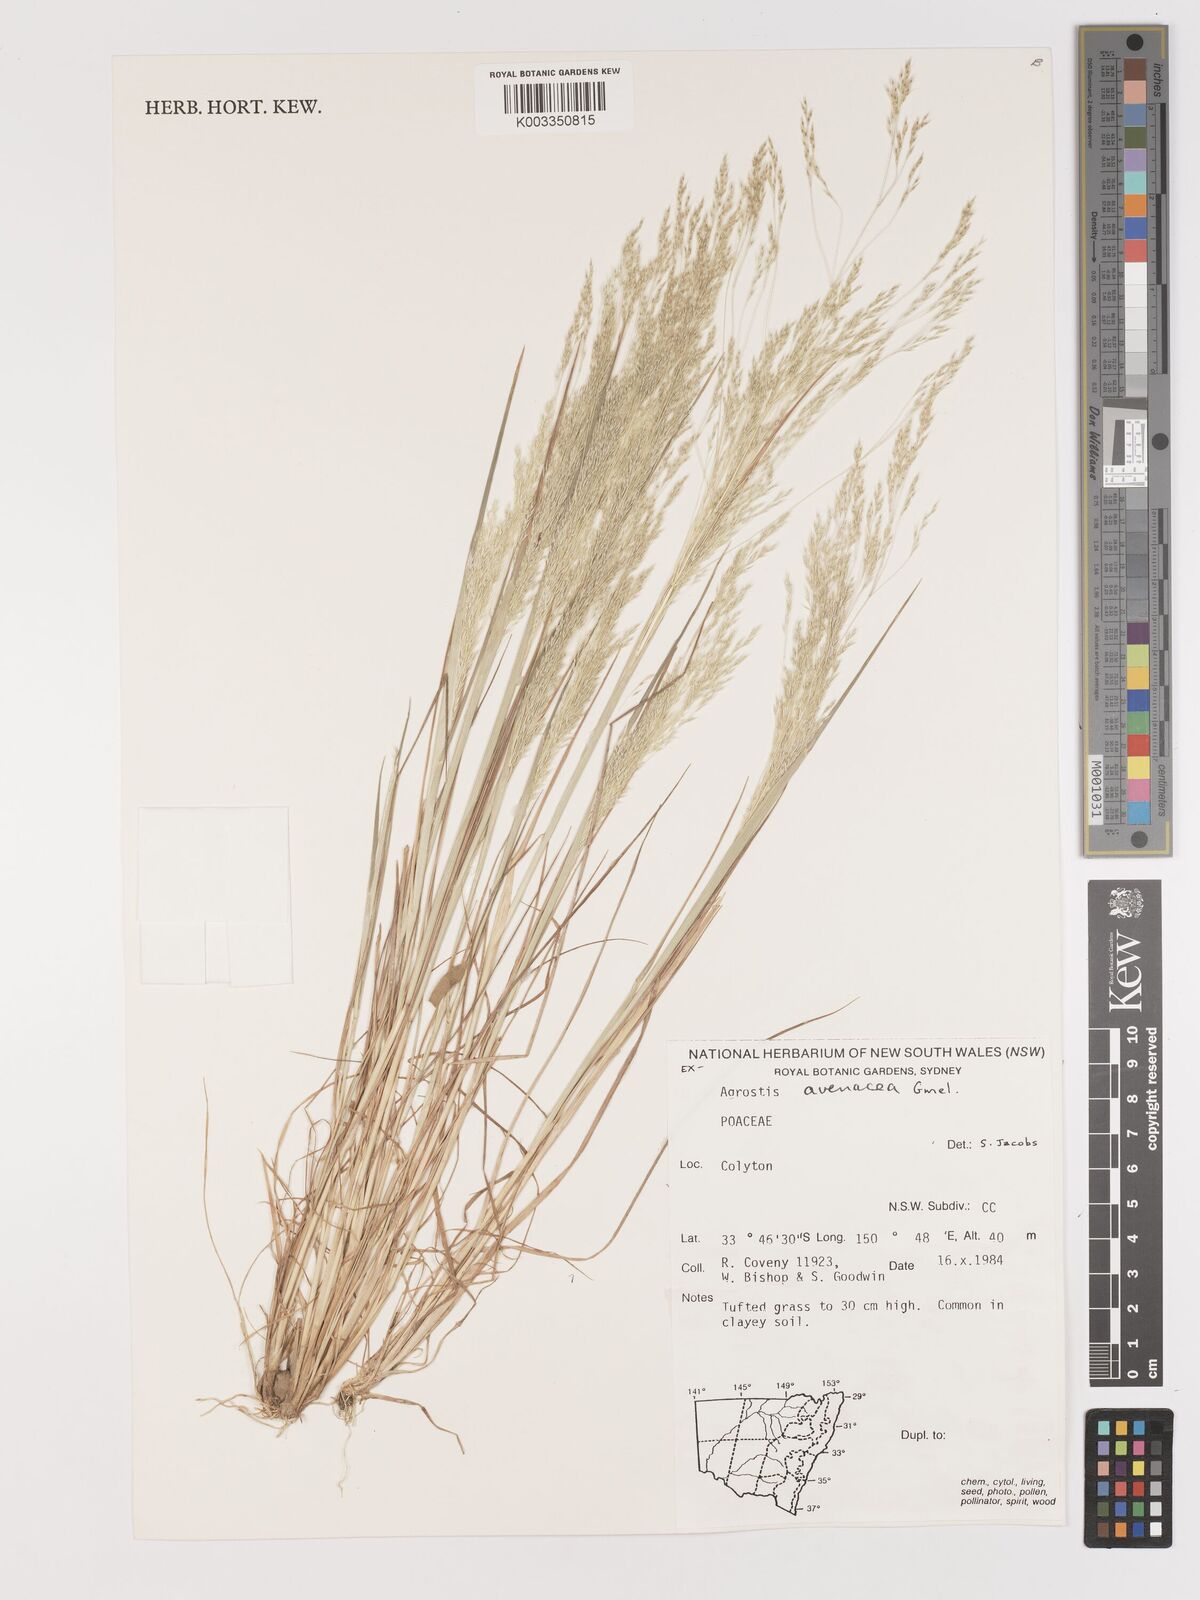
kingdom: Plantae
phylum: Tracheophyta
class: Liliopsida
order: Poales
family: Poaceae
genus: Lachnagrostis
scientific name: Lachnagrostis filiformis
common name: Bentgrass
